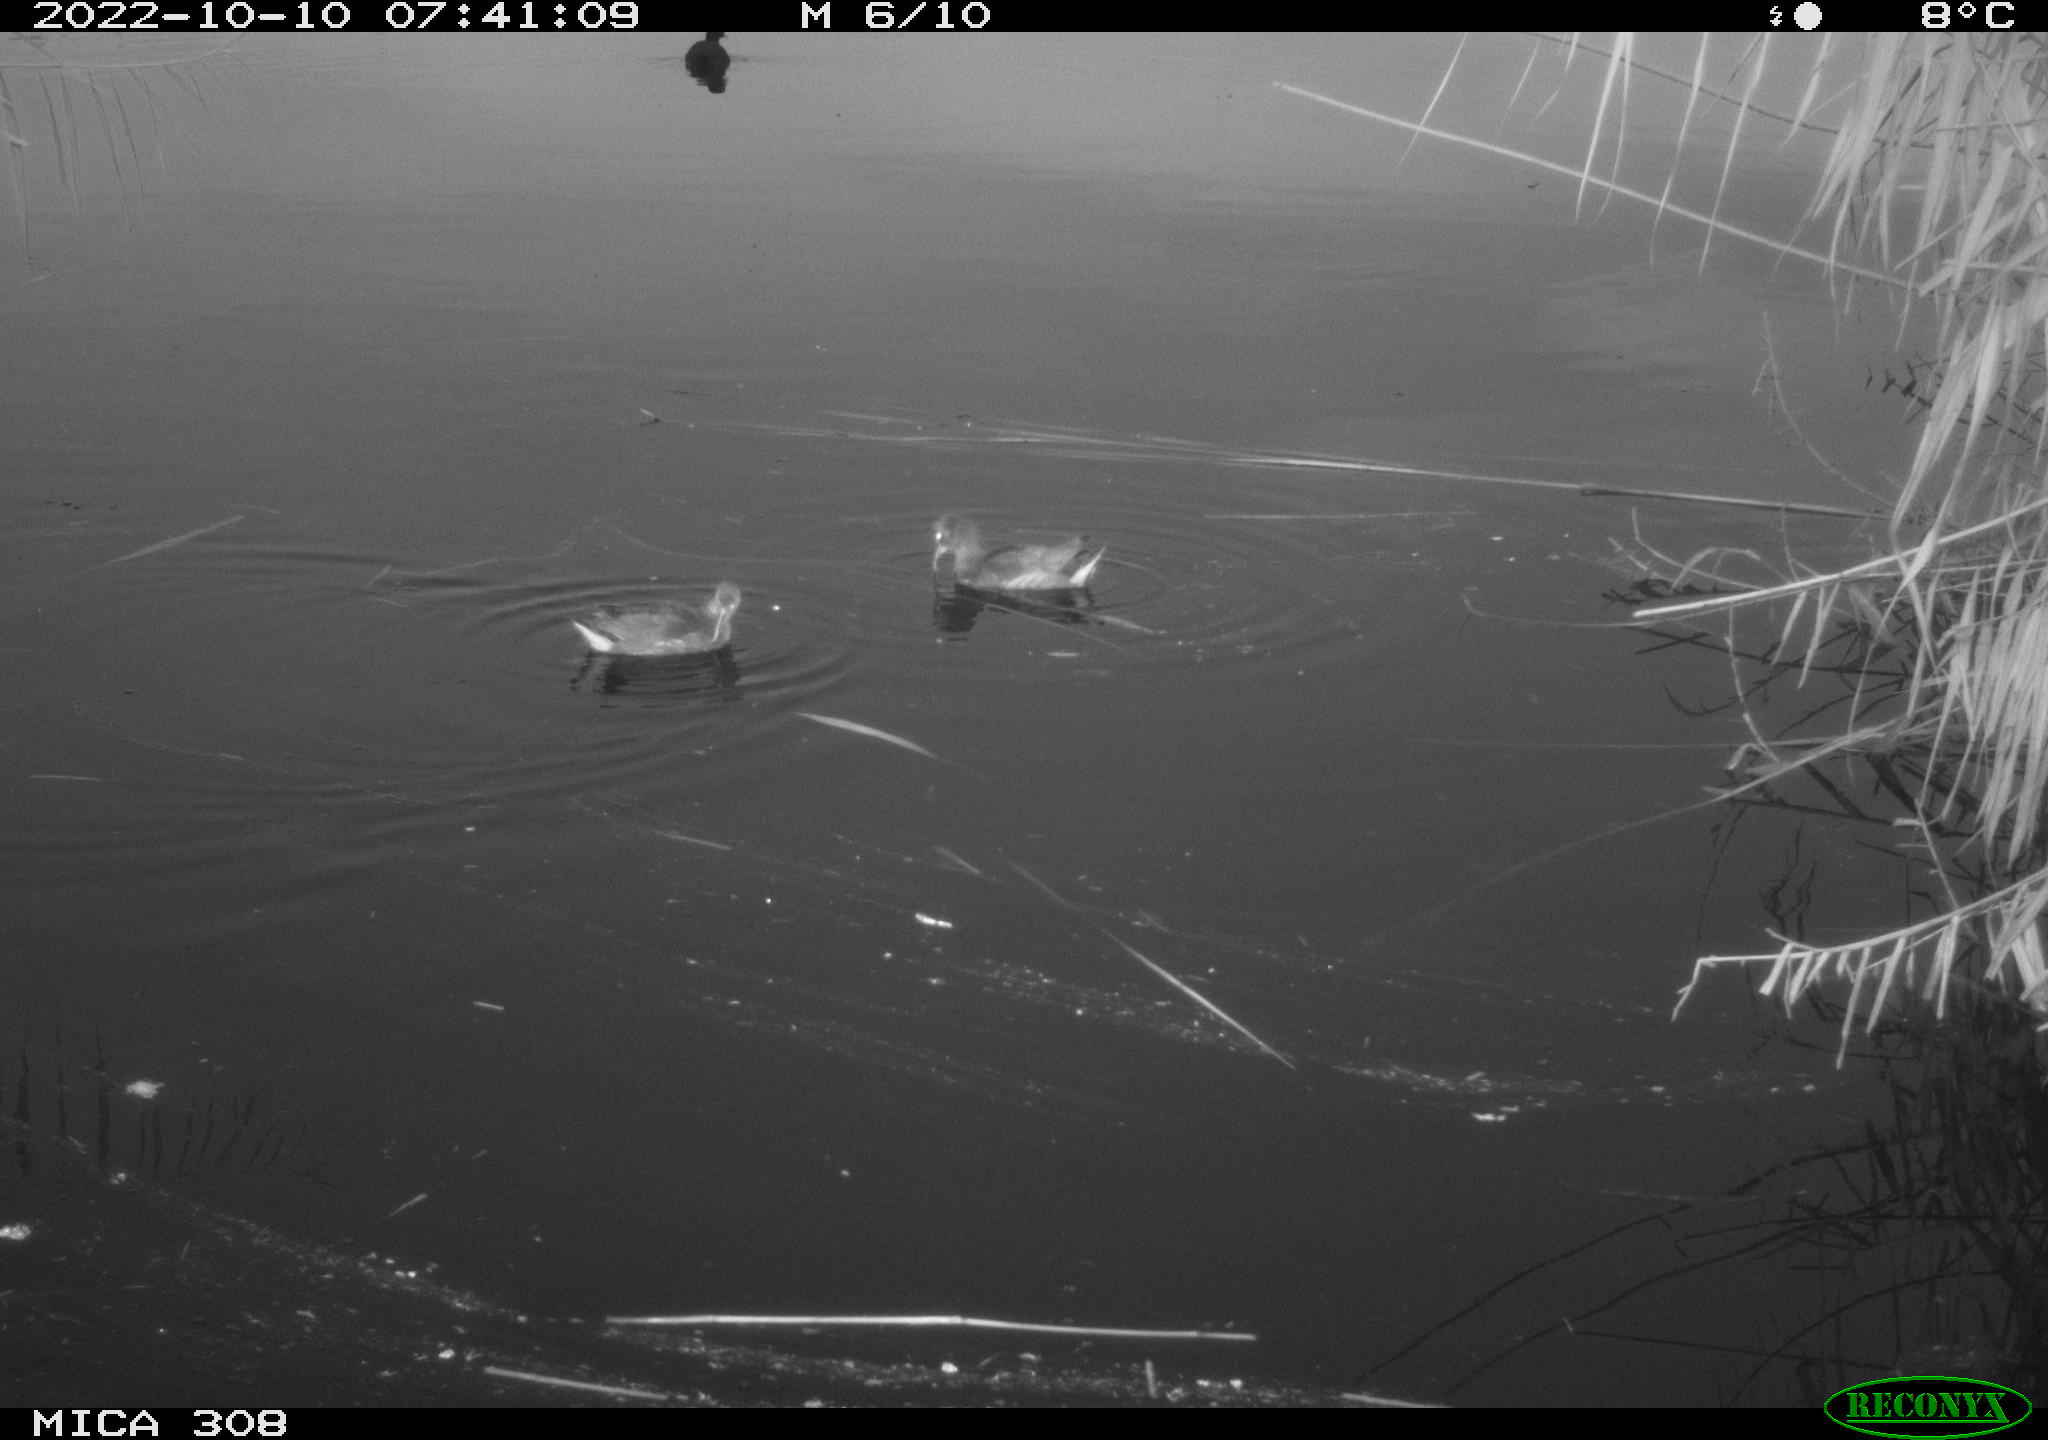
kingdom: Animalia
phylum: Chordata
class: Aves
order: Gruiformes
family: Rallidae
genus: Fulica
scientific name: Fulica atra
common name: Eurasian coot
